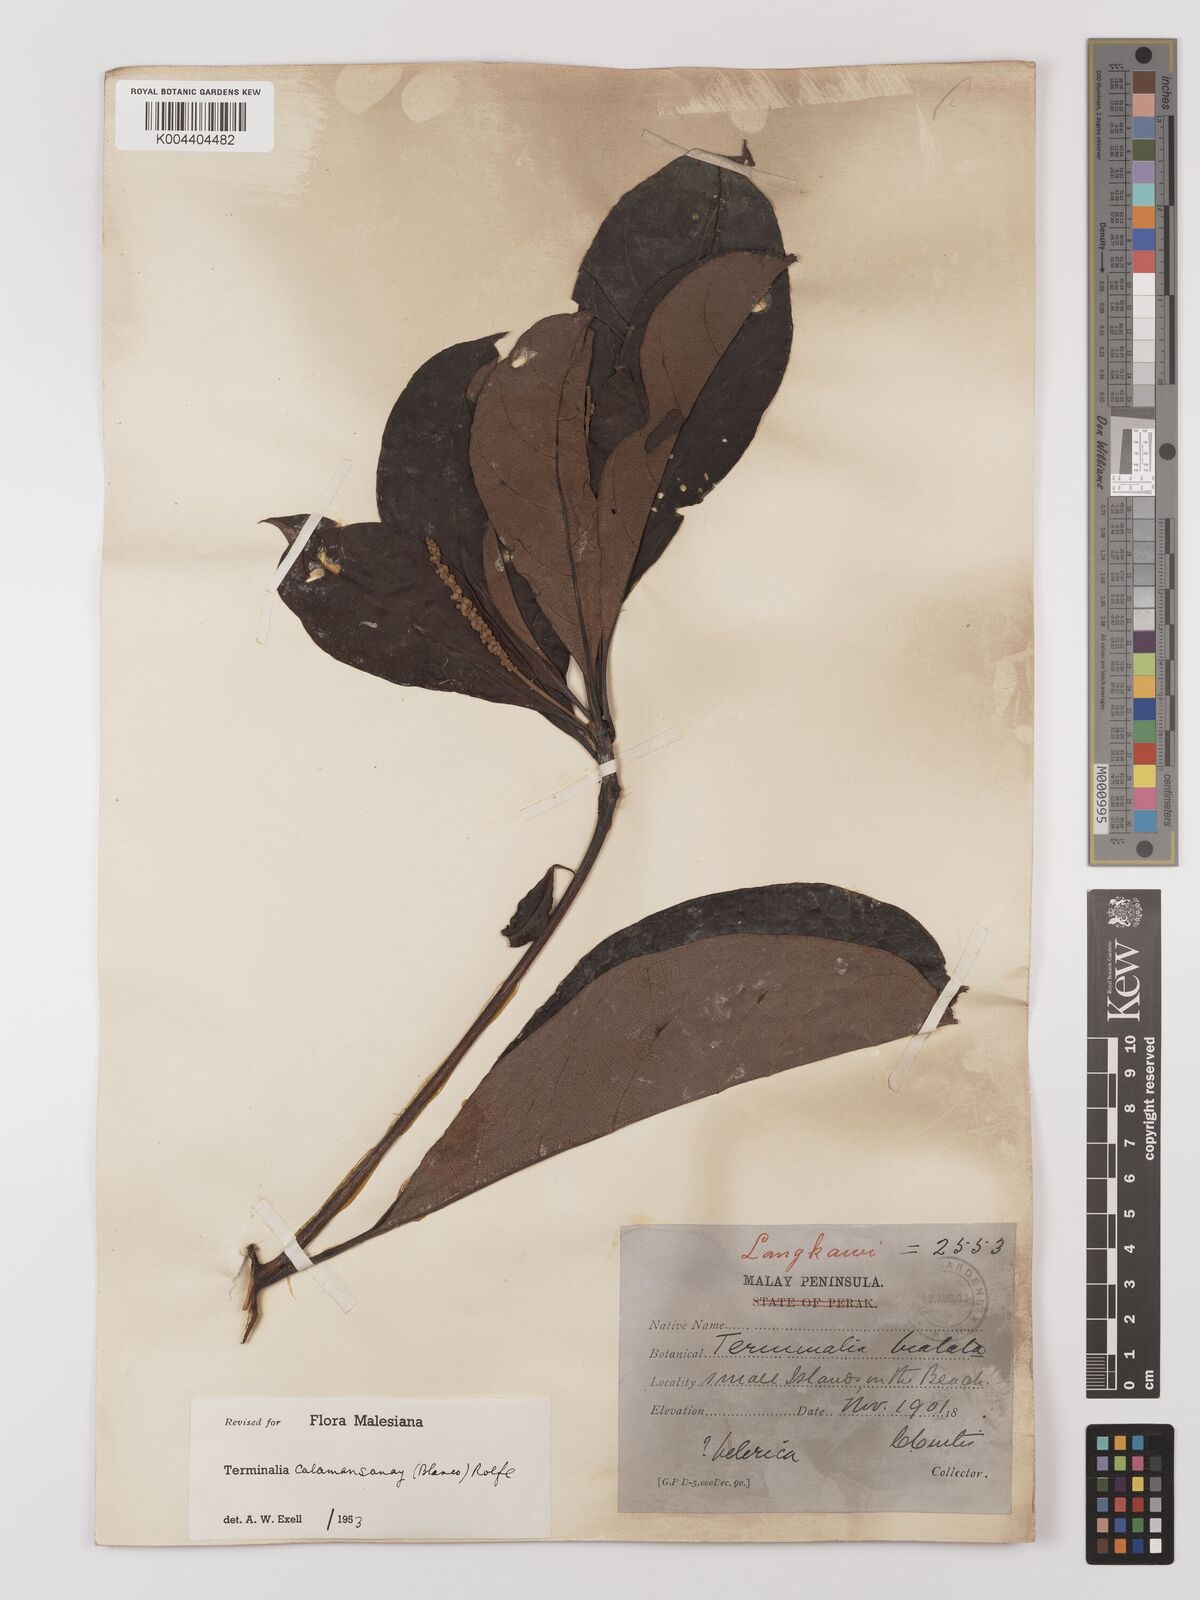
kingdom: Plantae
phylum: Tracheophyta
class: Magnoliopsida
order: Myrtales
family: Combretaceae
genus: Terminalia
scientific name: Terminalia calamansanai
